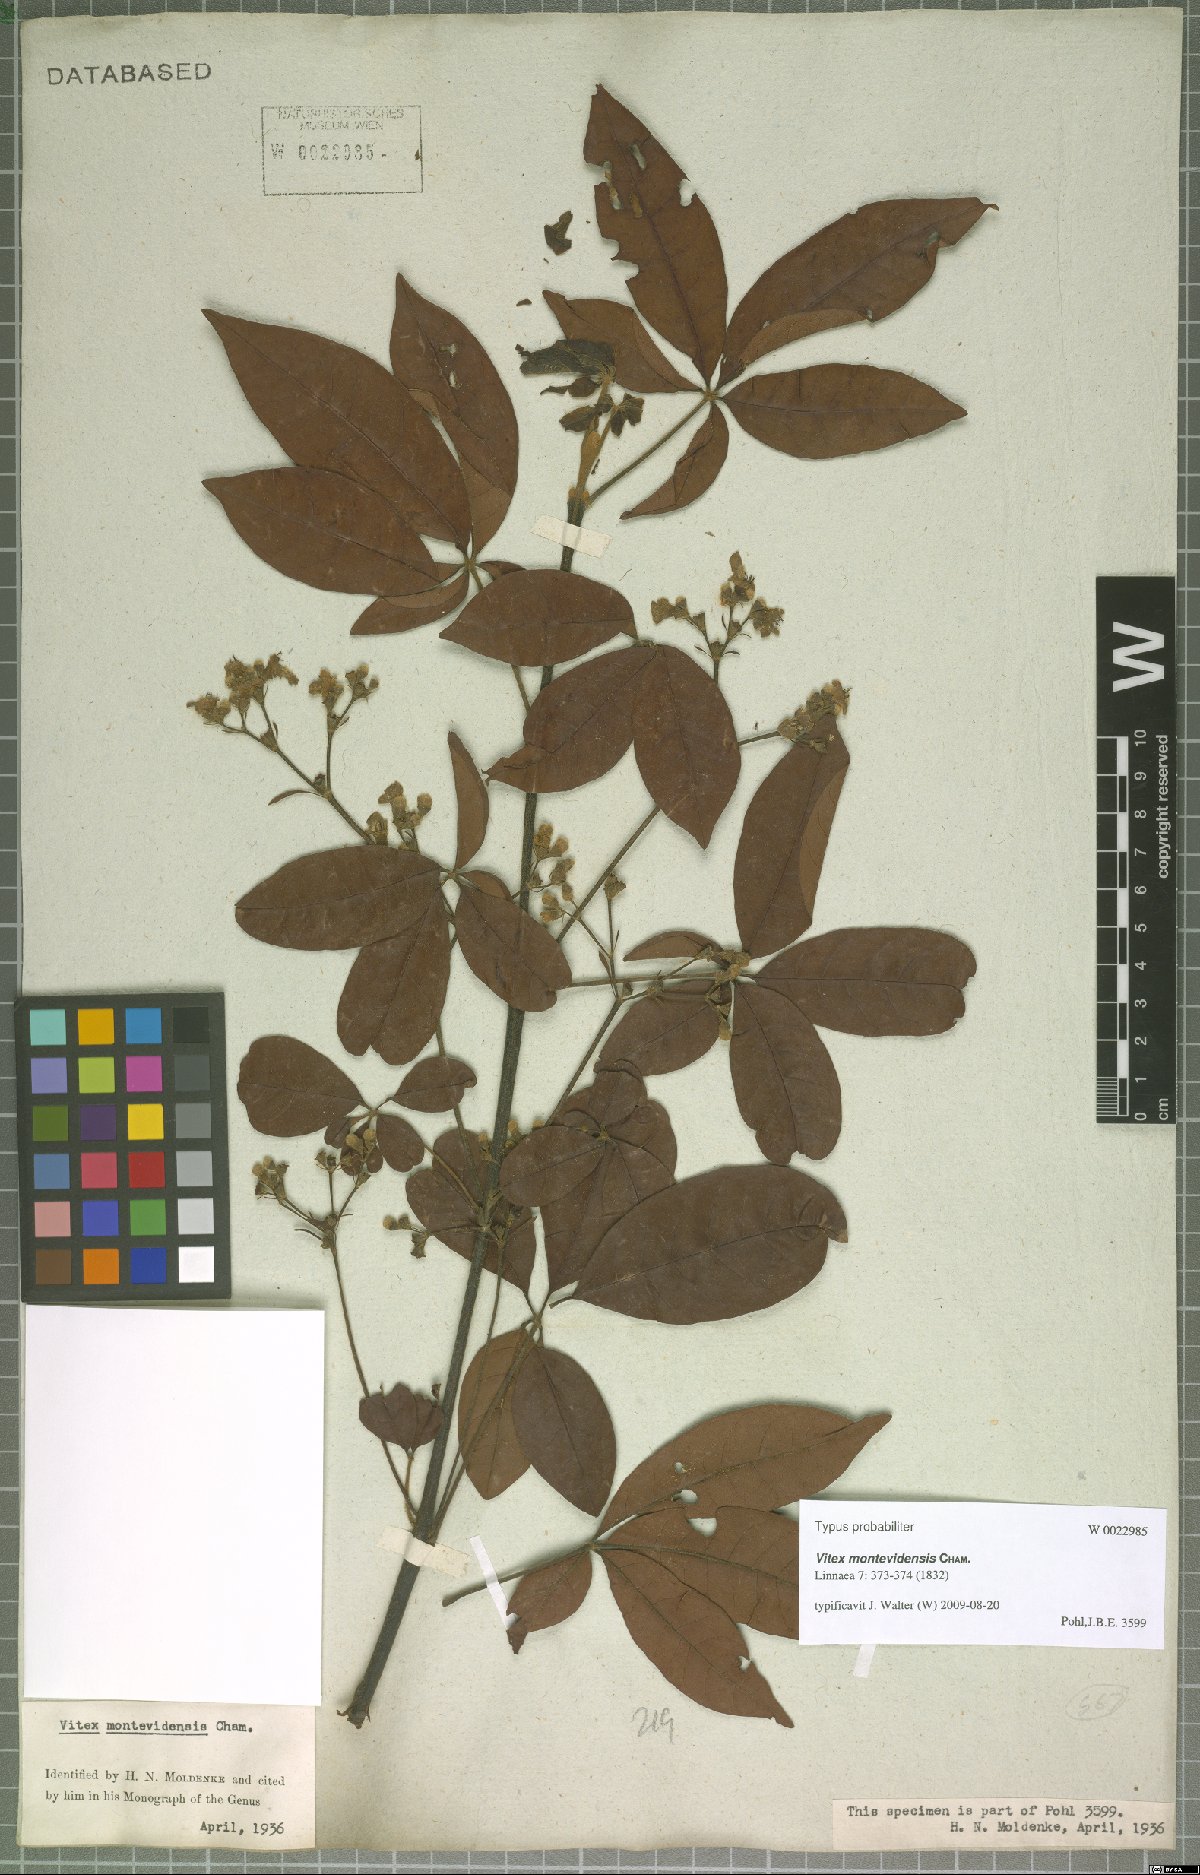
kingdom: Plantae
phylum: Tracheophyta
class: Magnoliopsida
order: Lamiales
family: Lamiaceae
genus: Vitex
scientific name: Vitex megapotamica
